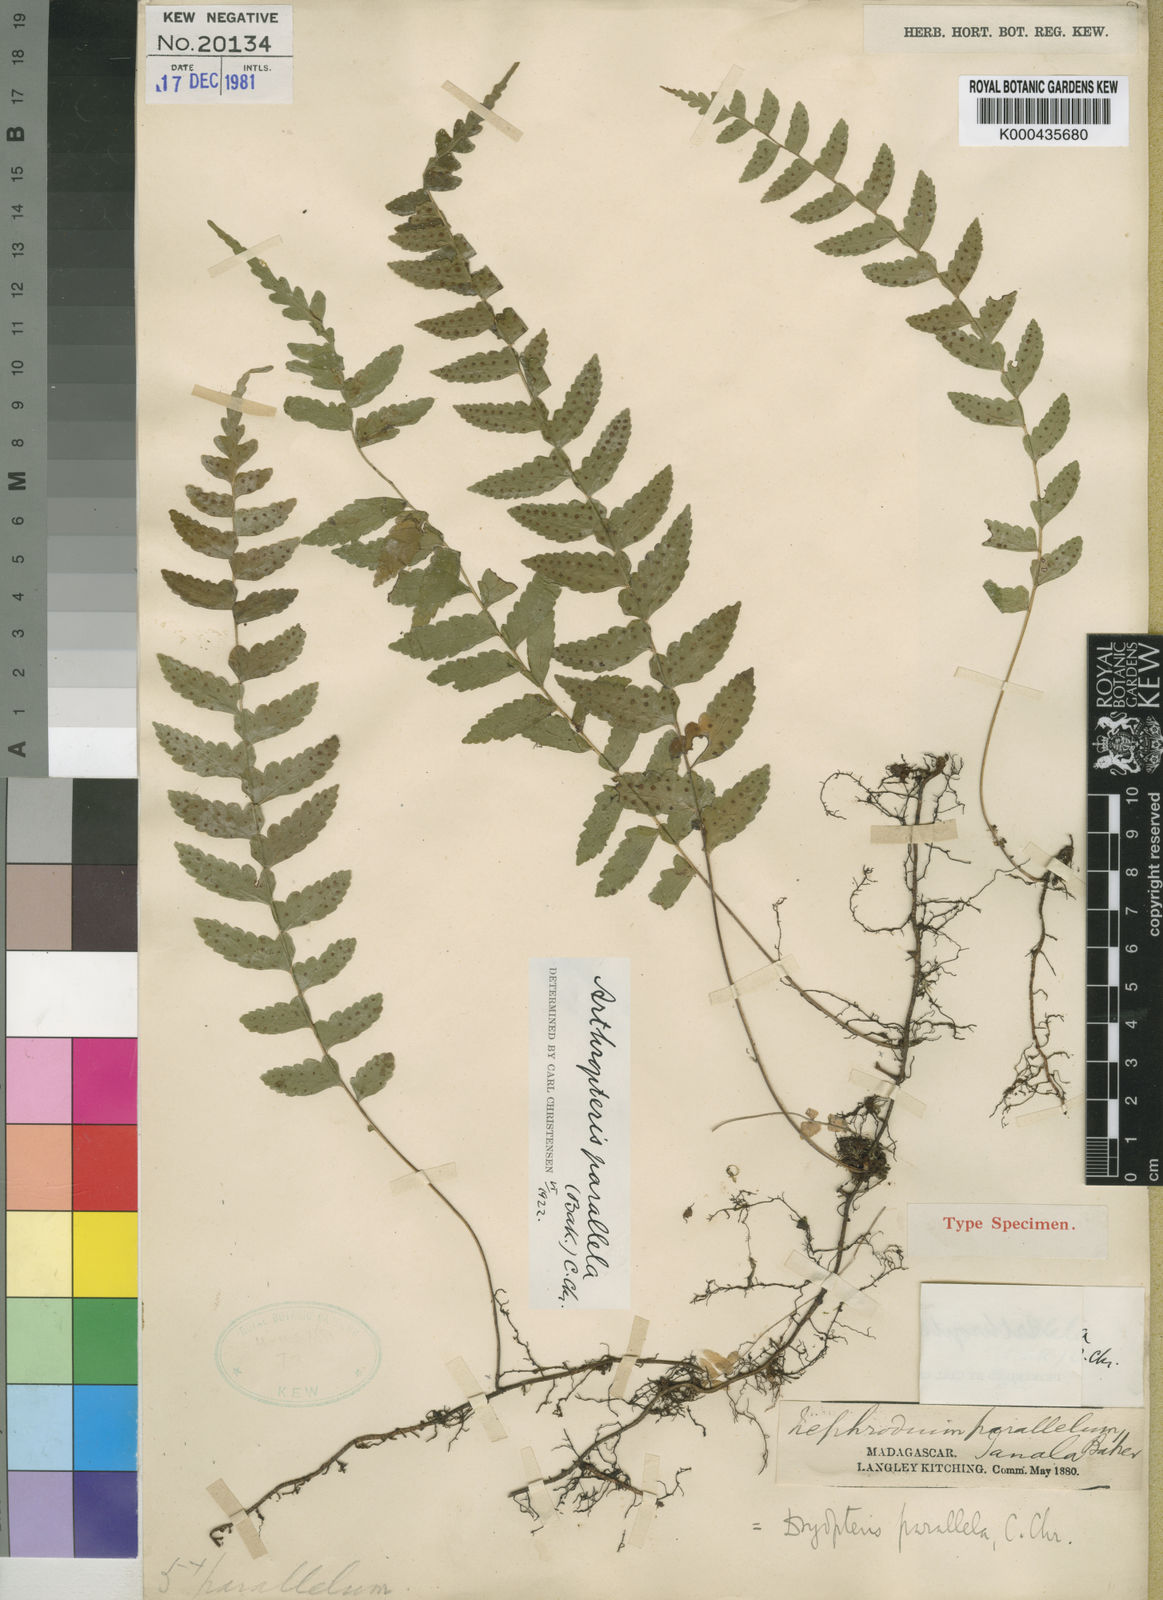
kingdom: Plantae
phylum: Tracheophyta
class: Polypodiopsida
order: Polypodiales
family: Tectariaceae
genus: Arthropteris
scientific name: Arthropteris parallela
